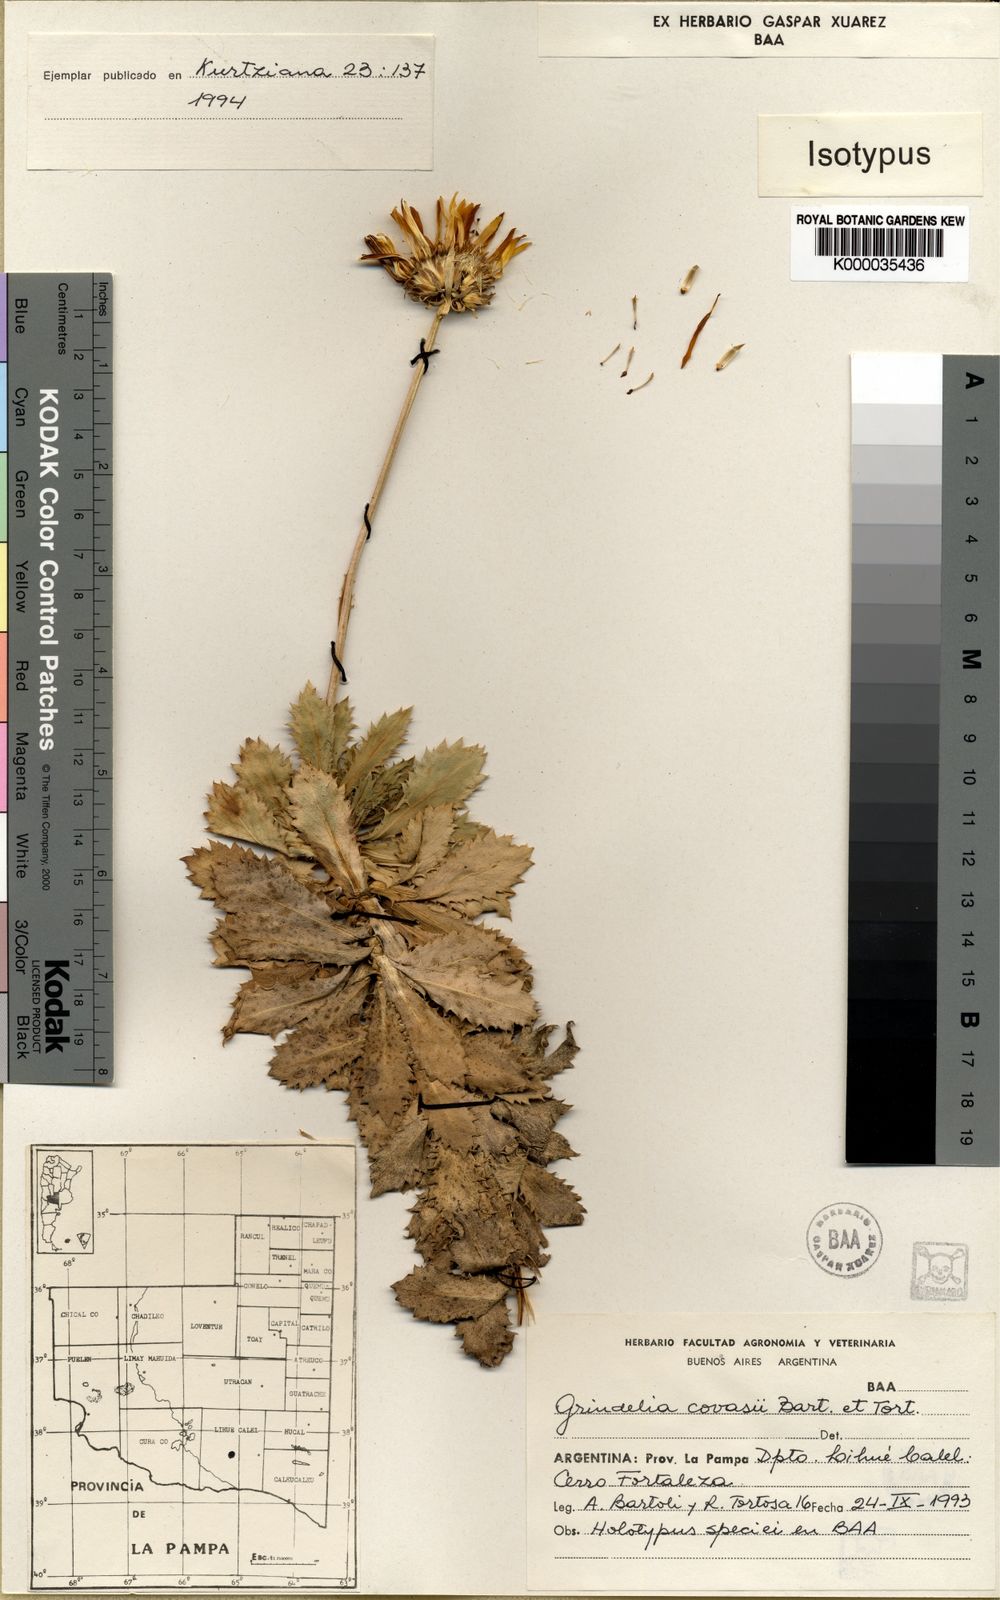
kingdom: Plantae
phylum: Tracheophyta
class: Magnoliopsida
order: Asterales
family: Asteraceae
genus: Grindelia
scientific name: Grindelia covasii
